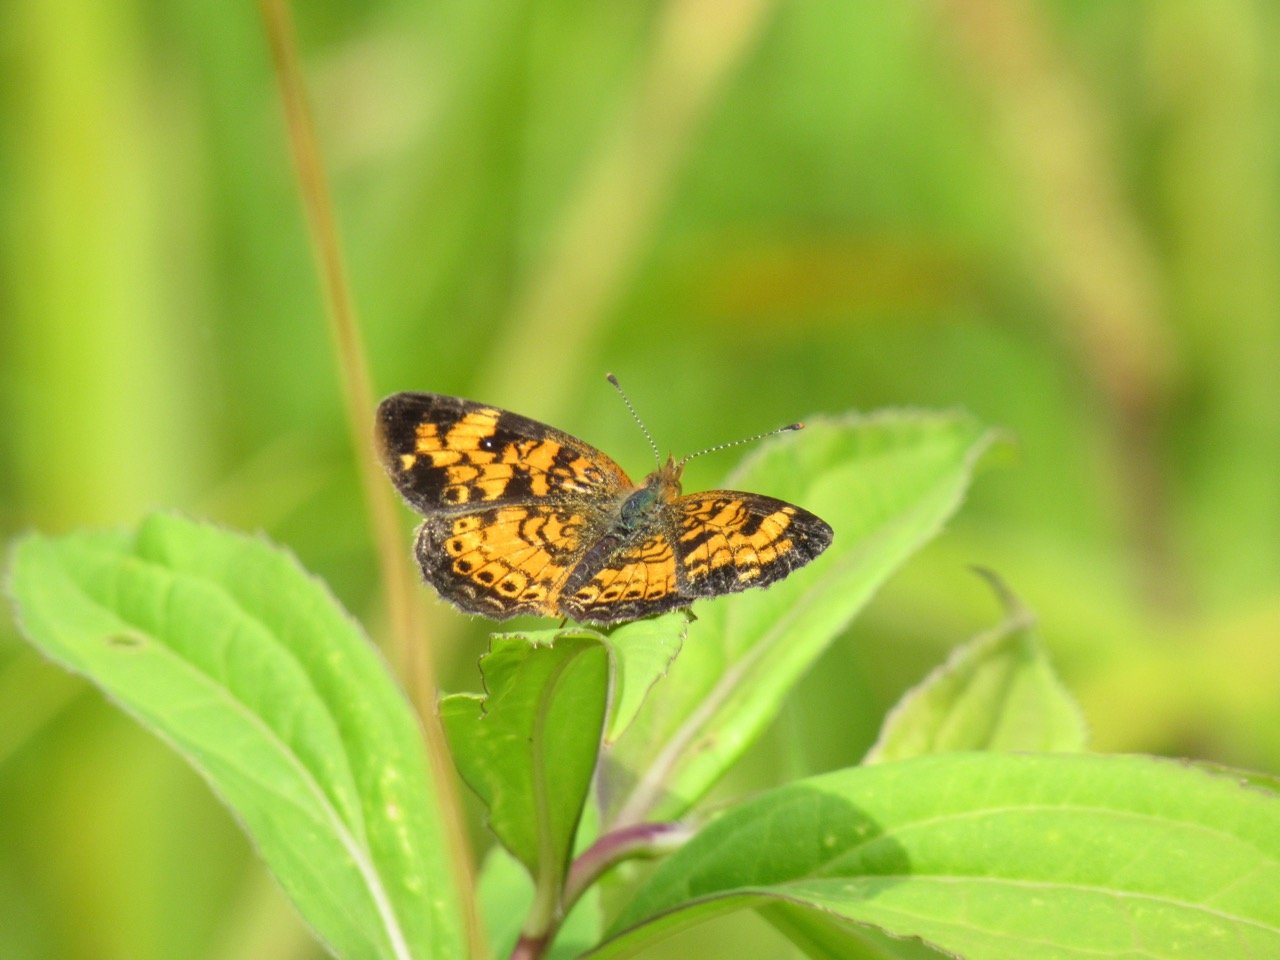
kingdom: Animalia
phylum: Arthropoda
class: Insecta
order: Lepidoptera
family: Nymphalidae
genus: Phyciodes
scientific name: Phyciodes tharos
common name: Pearl Crescent
